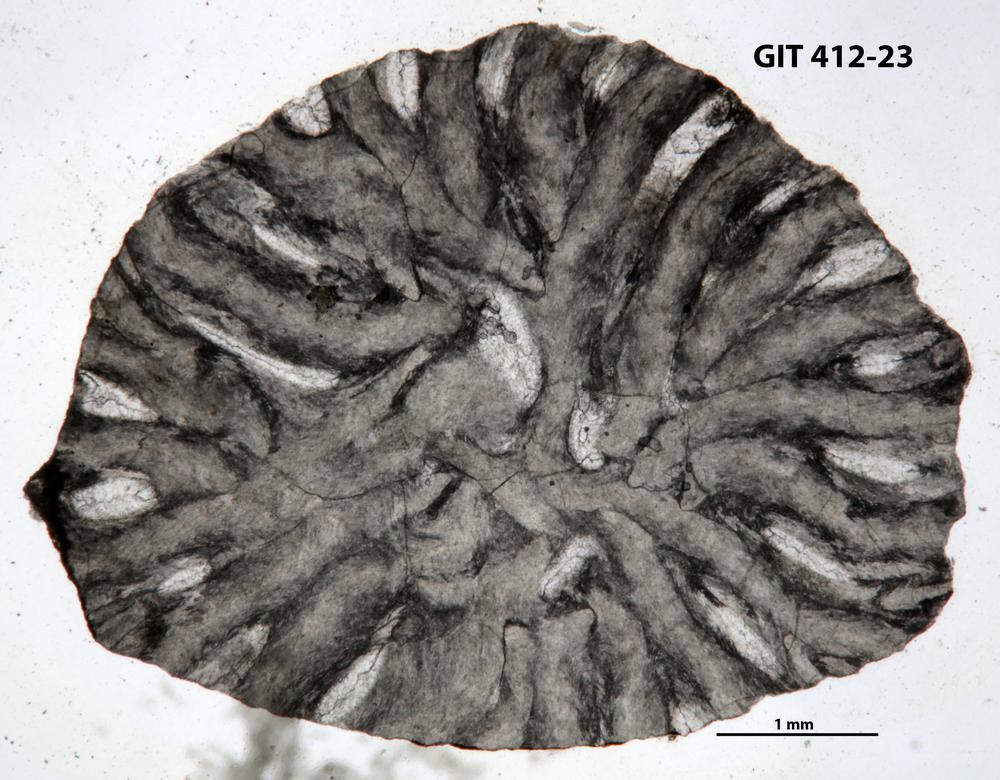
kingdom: Animalia
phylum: Cnidaria
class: Anthozoa
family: Streptelasmatidae
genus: Rhegmaphyllum
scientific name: Rhegmaphyllum
